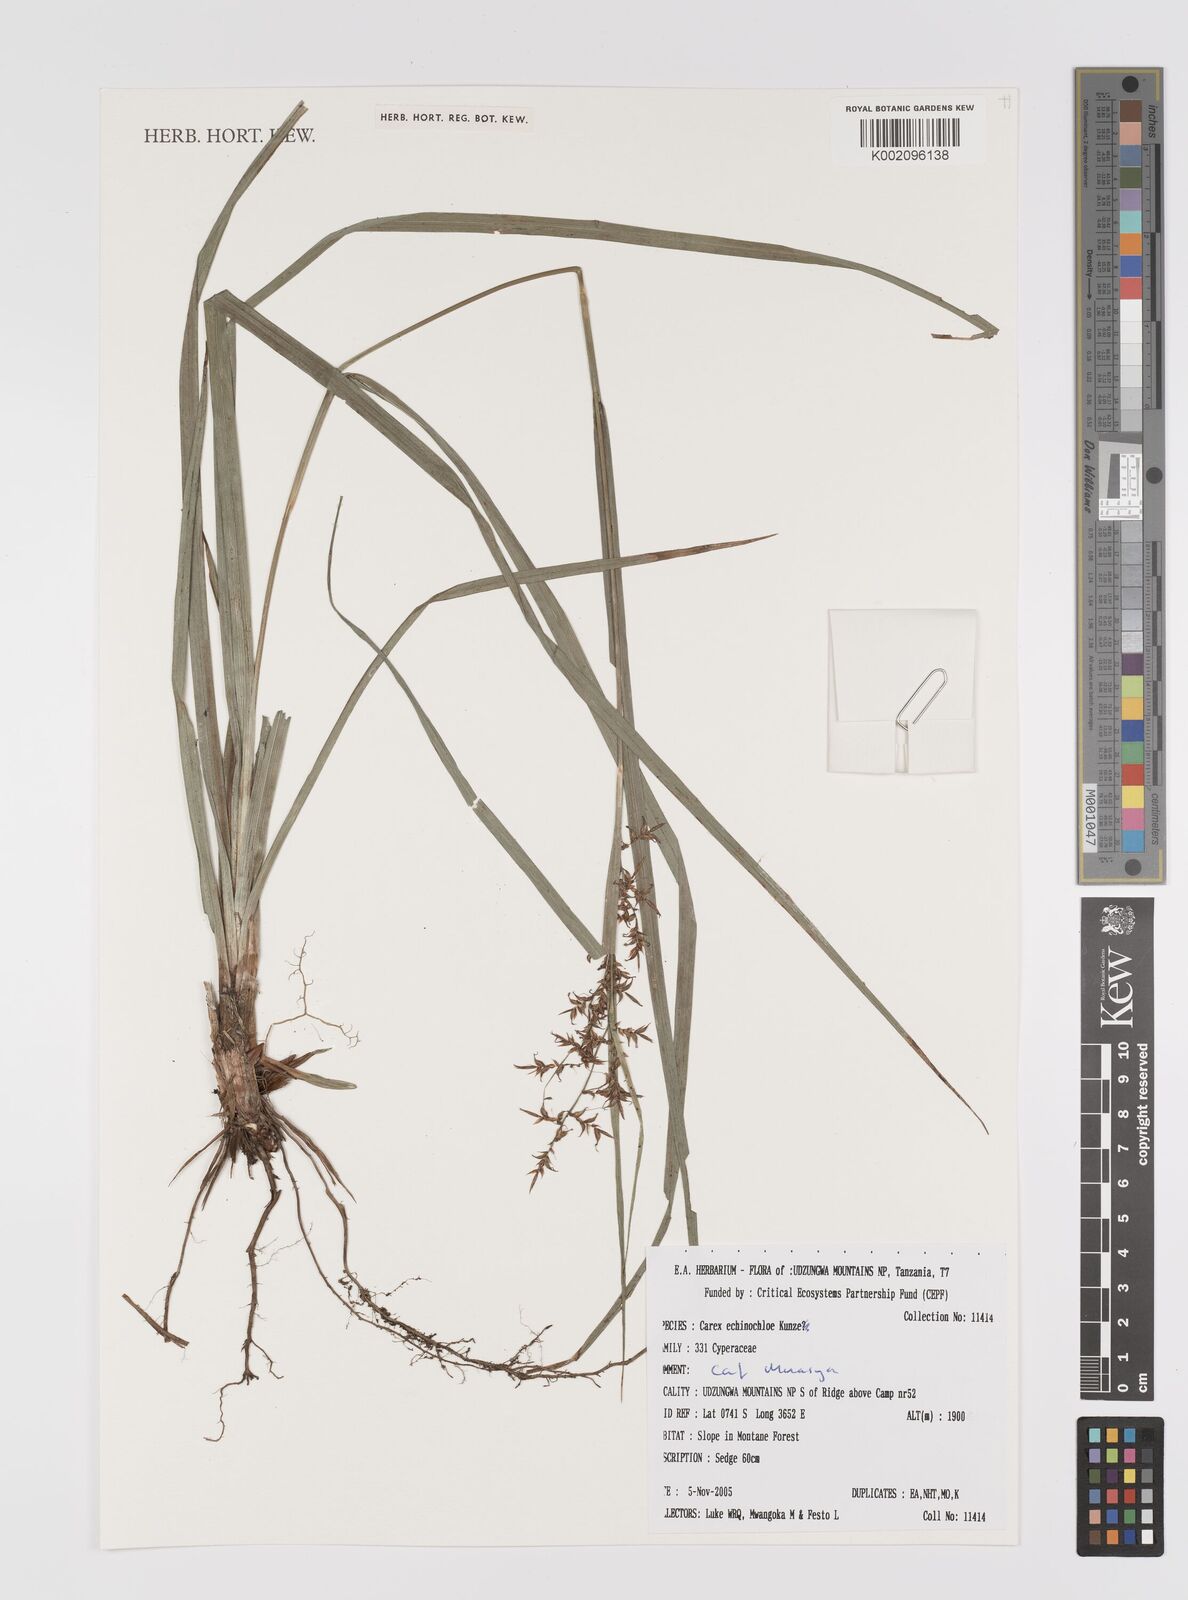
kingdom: Plantae
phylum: Tracheophyta
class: Liliopsida
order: Poales
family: Cyperaceae
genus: Carex
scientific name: Carex echinochloe
